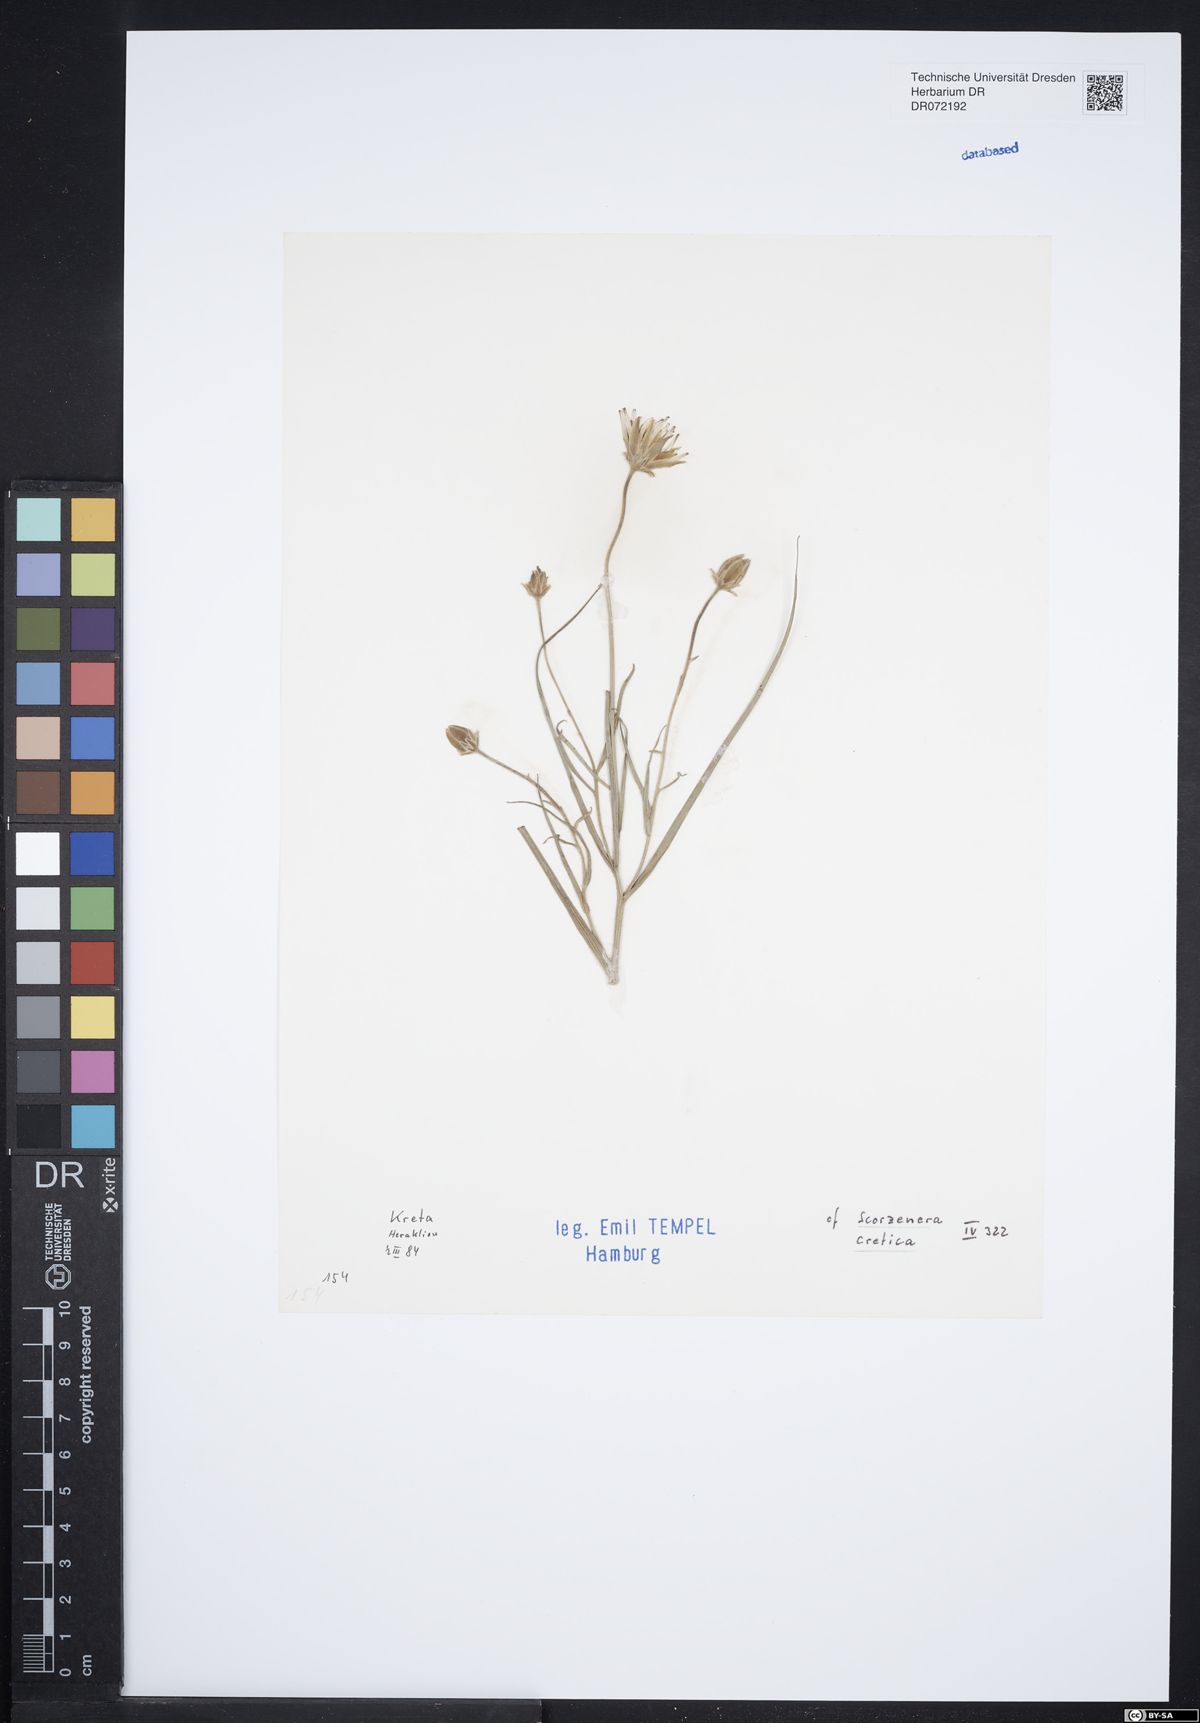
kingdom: Plantae
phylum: Tracheophyta
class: Magnoliopsida
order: Asterales
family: Asteraceae
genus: Gelasia
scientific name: Gelasia cretica
